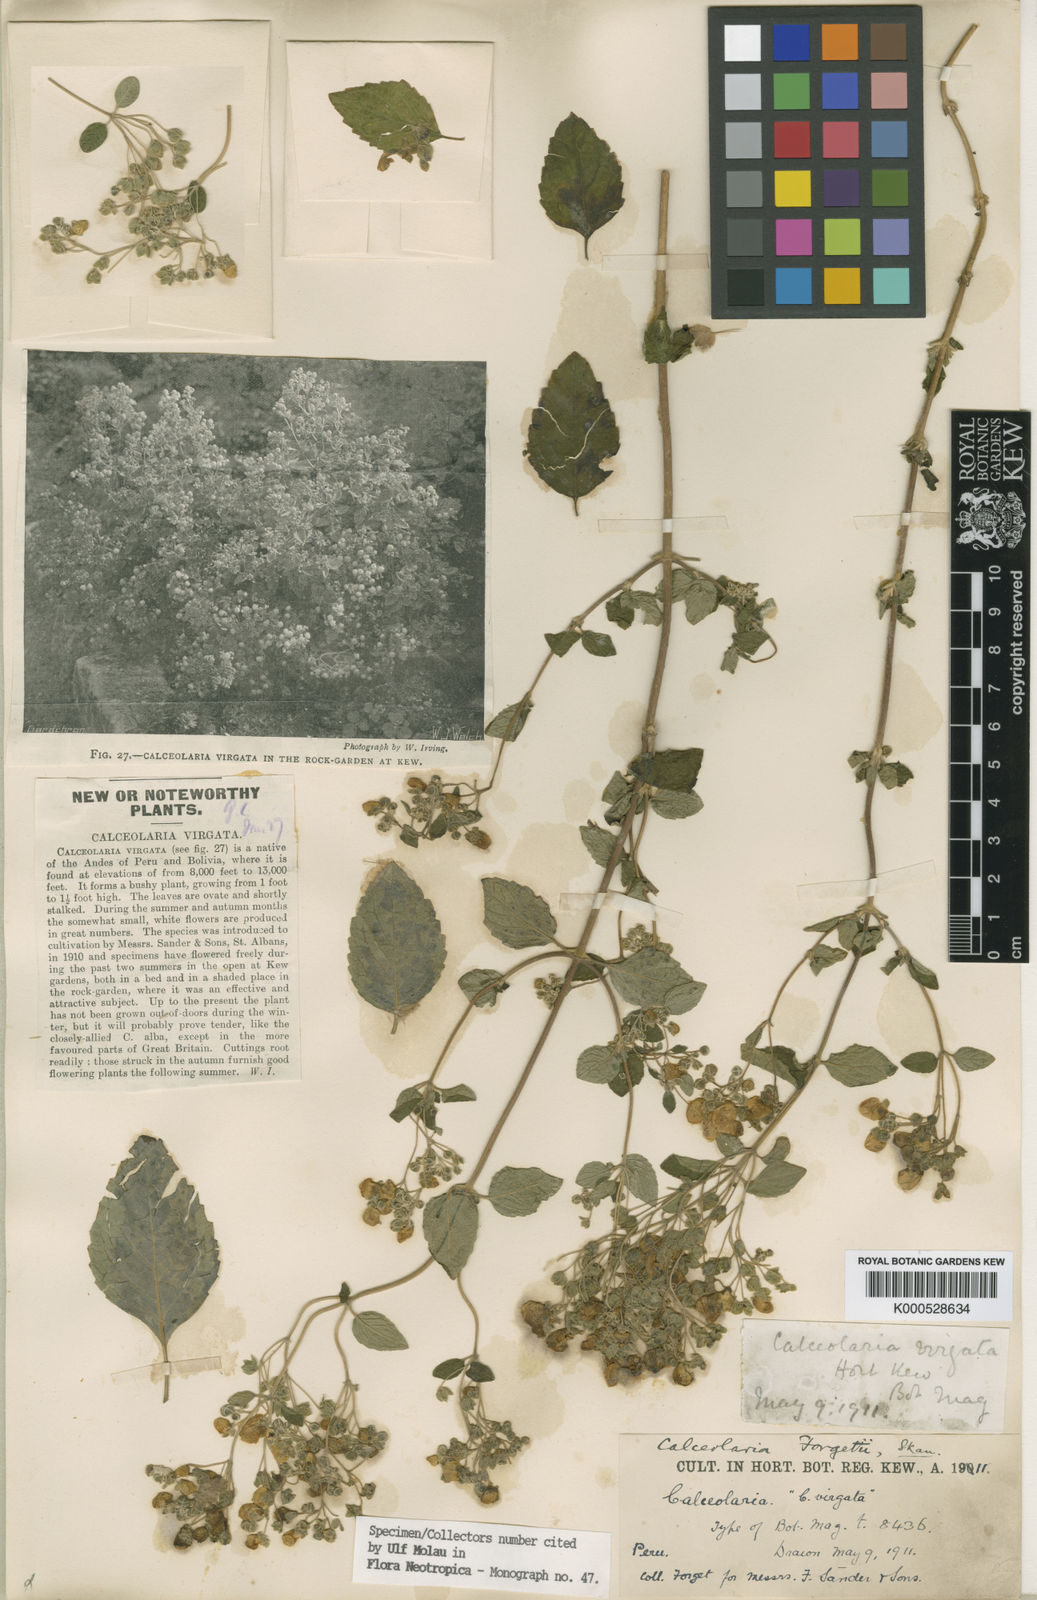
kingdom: Plantae
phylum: Tracheophyta
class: Magnoliopsida
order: Lamiales
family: Calceolariaceae
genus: Calceolaria
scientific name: Calceolaria virgata
